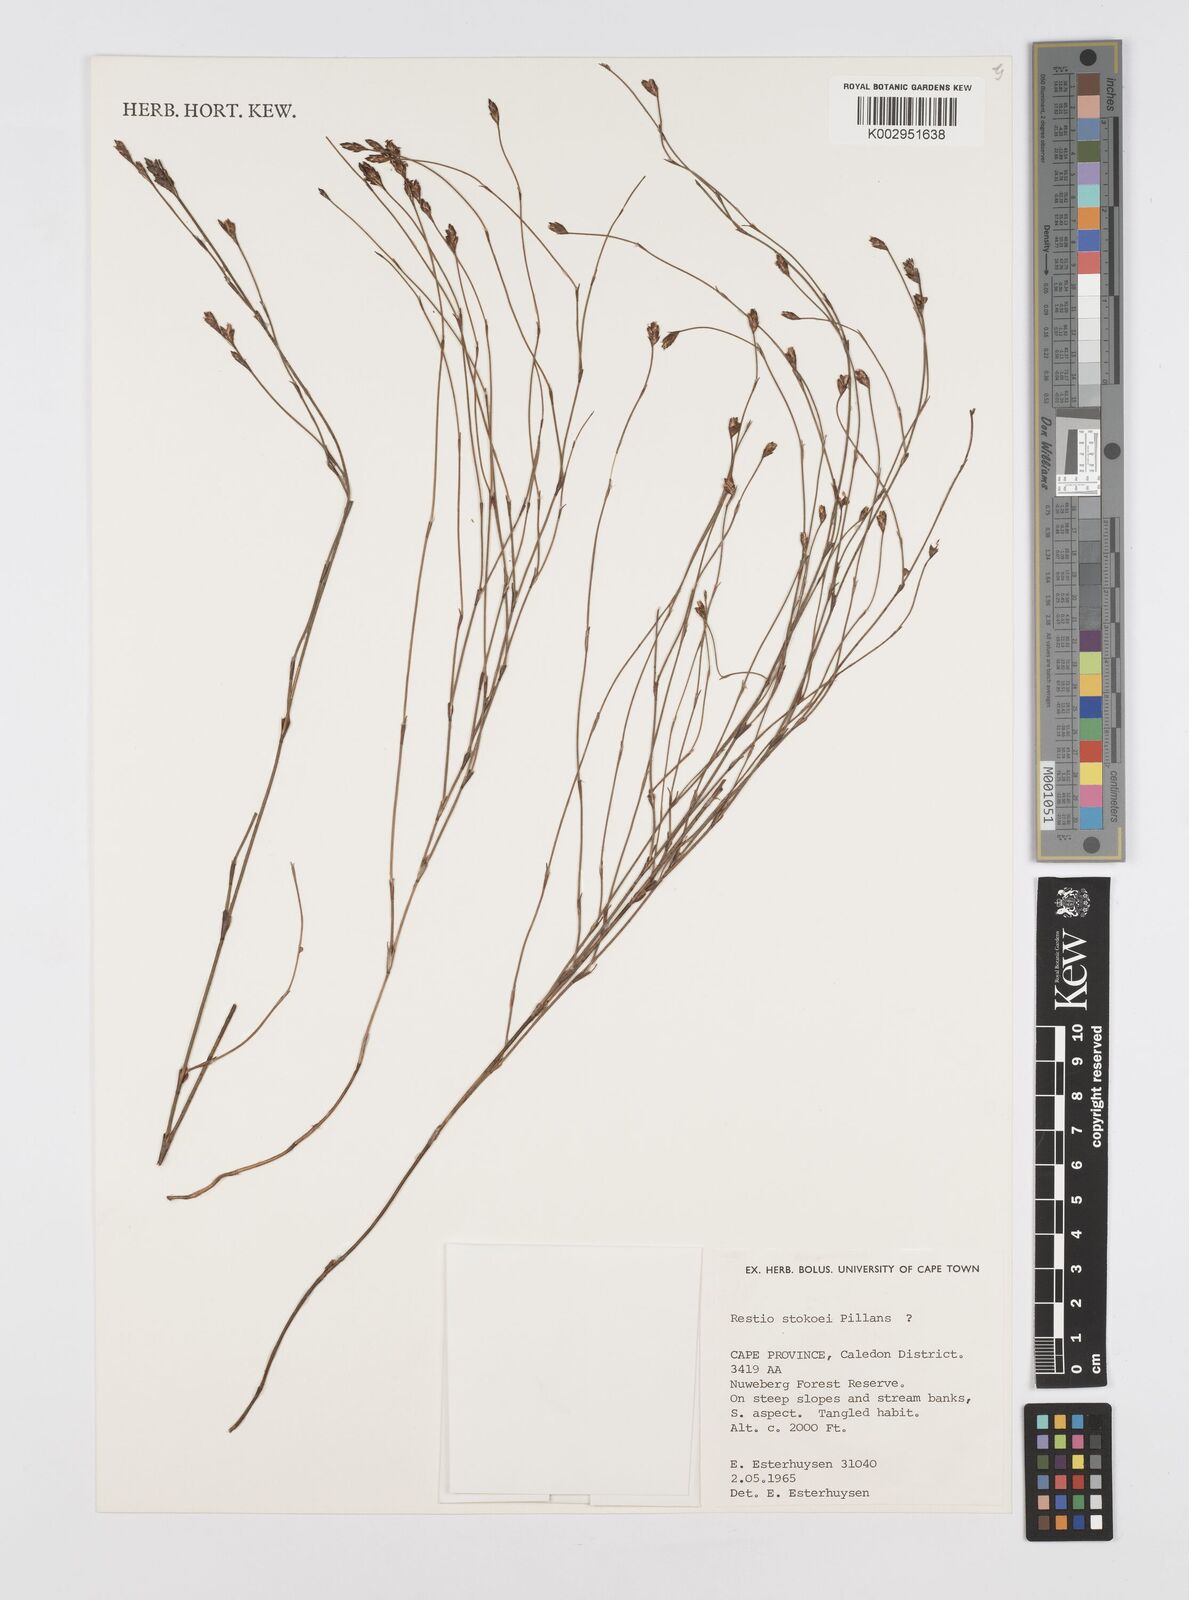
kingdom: Plantae
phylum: Tracheophyta
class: Liliopsida
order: Poales
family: Restionaceae
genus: Restio
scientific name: Restio stokoei
